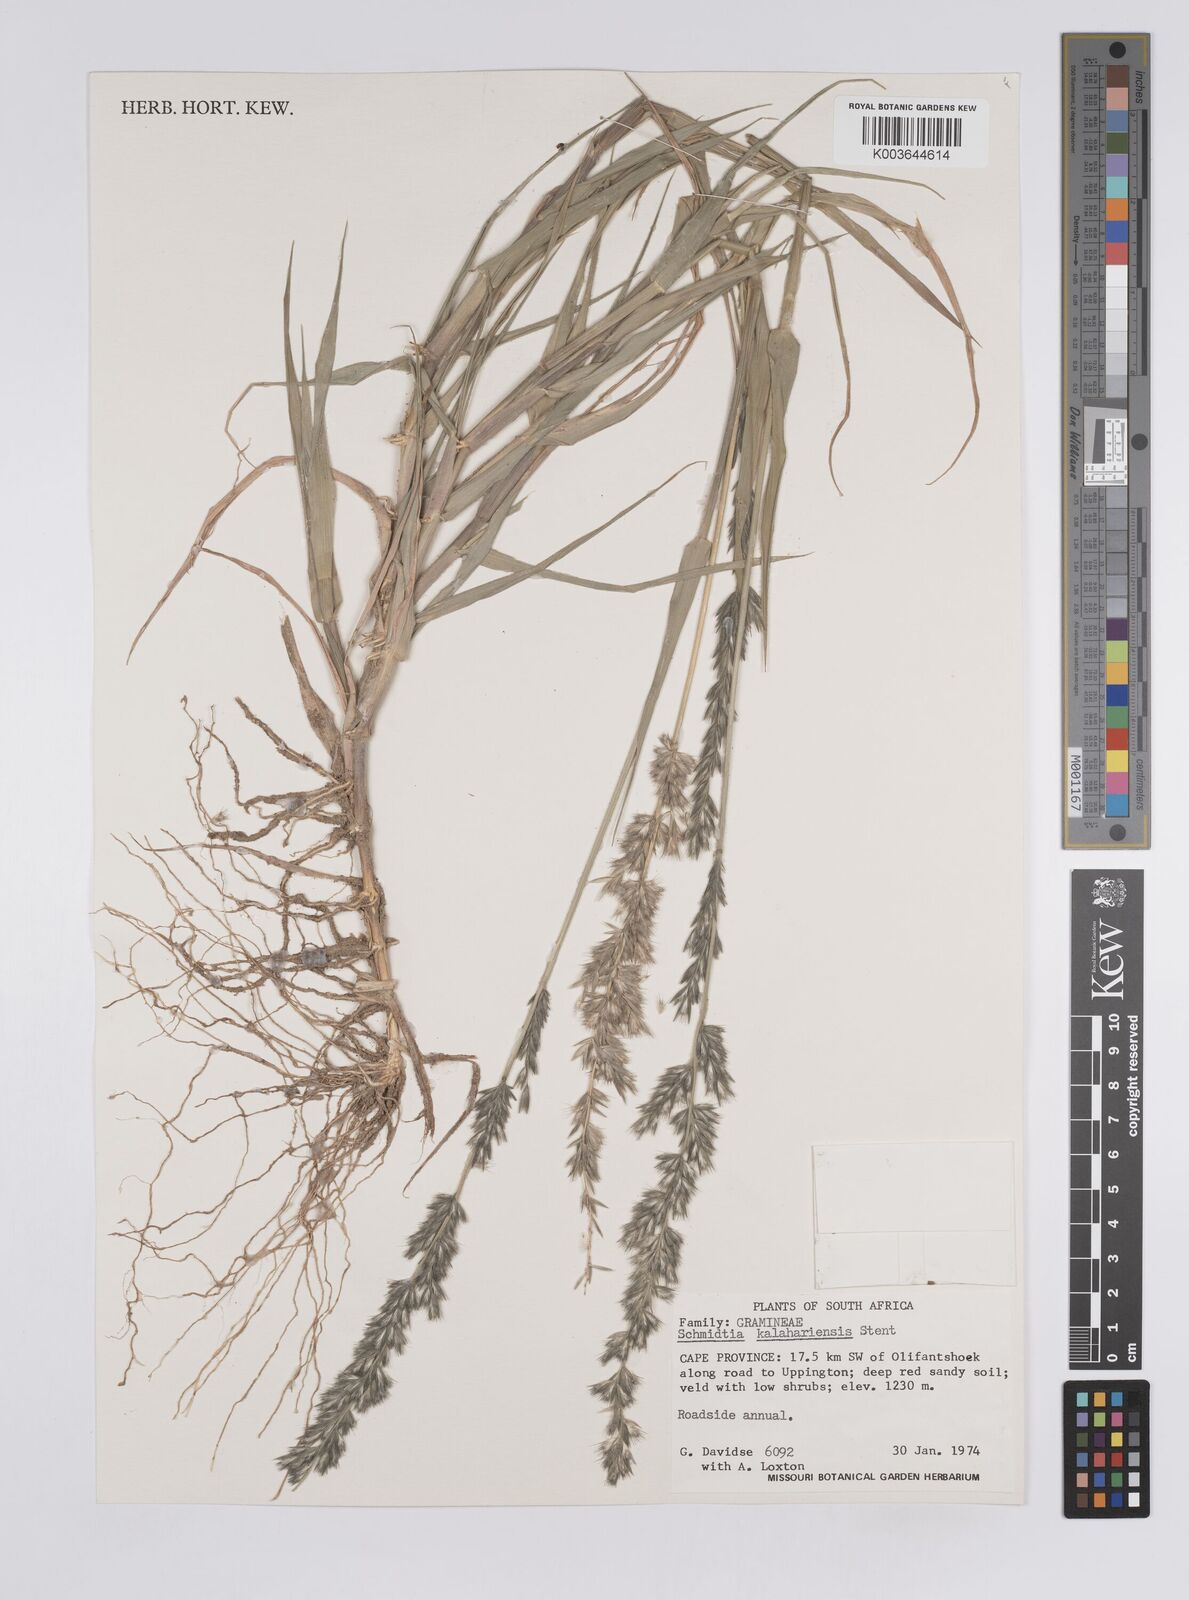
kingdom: Plantae
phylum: Tracheophyta
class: Liliopsida
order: Poales
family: Poaceae
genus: Schmidtia
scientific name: Schmidtia kalahariensis
